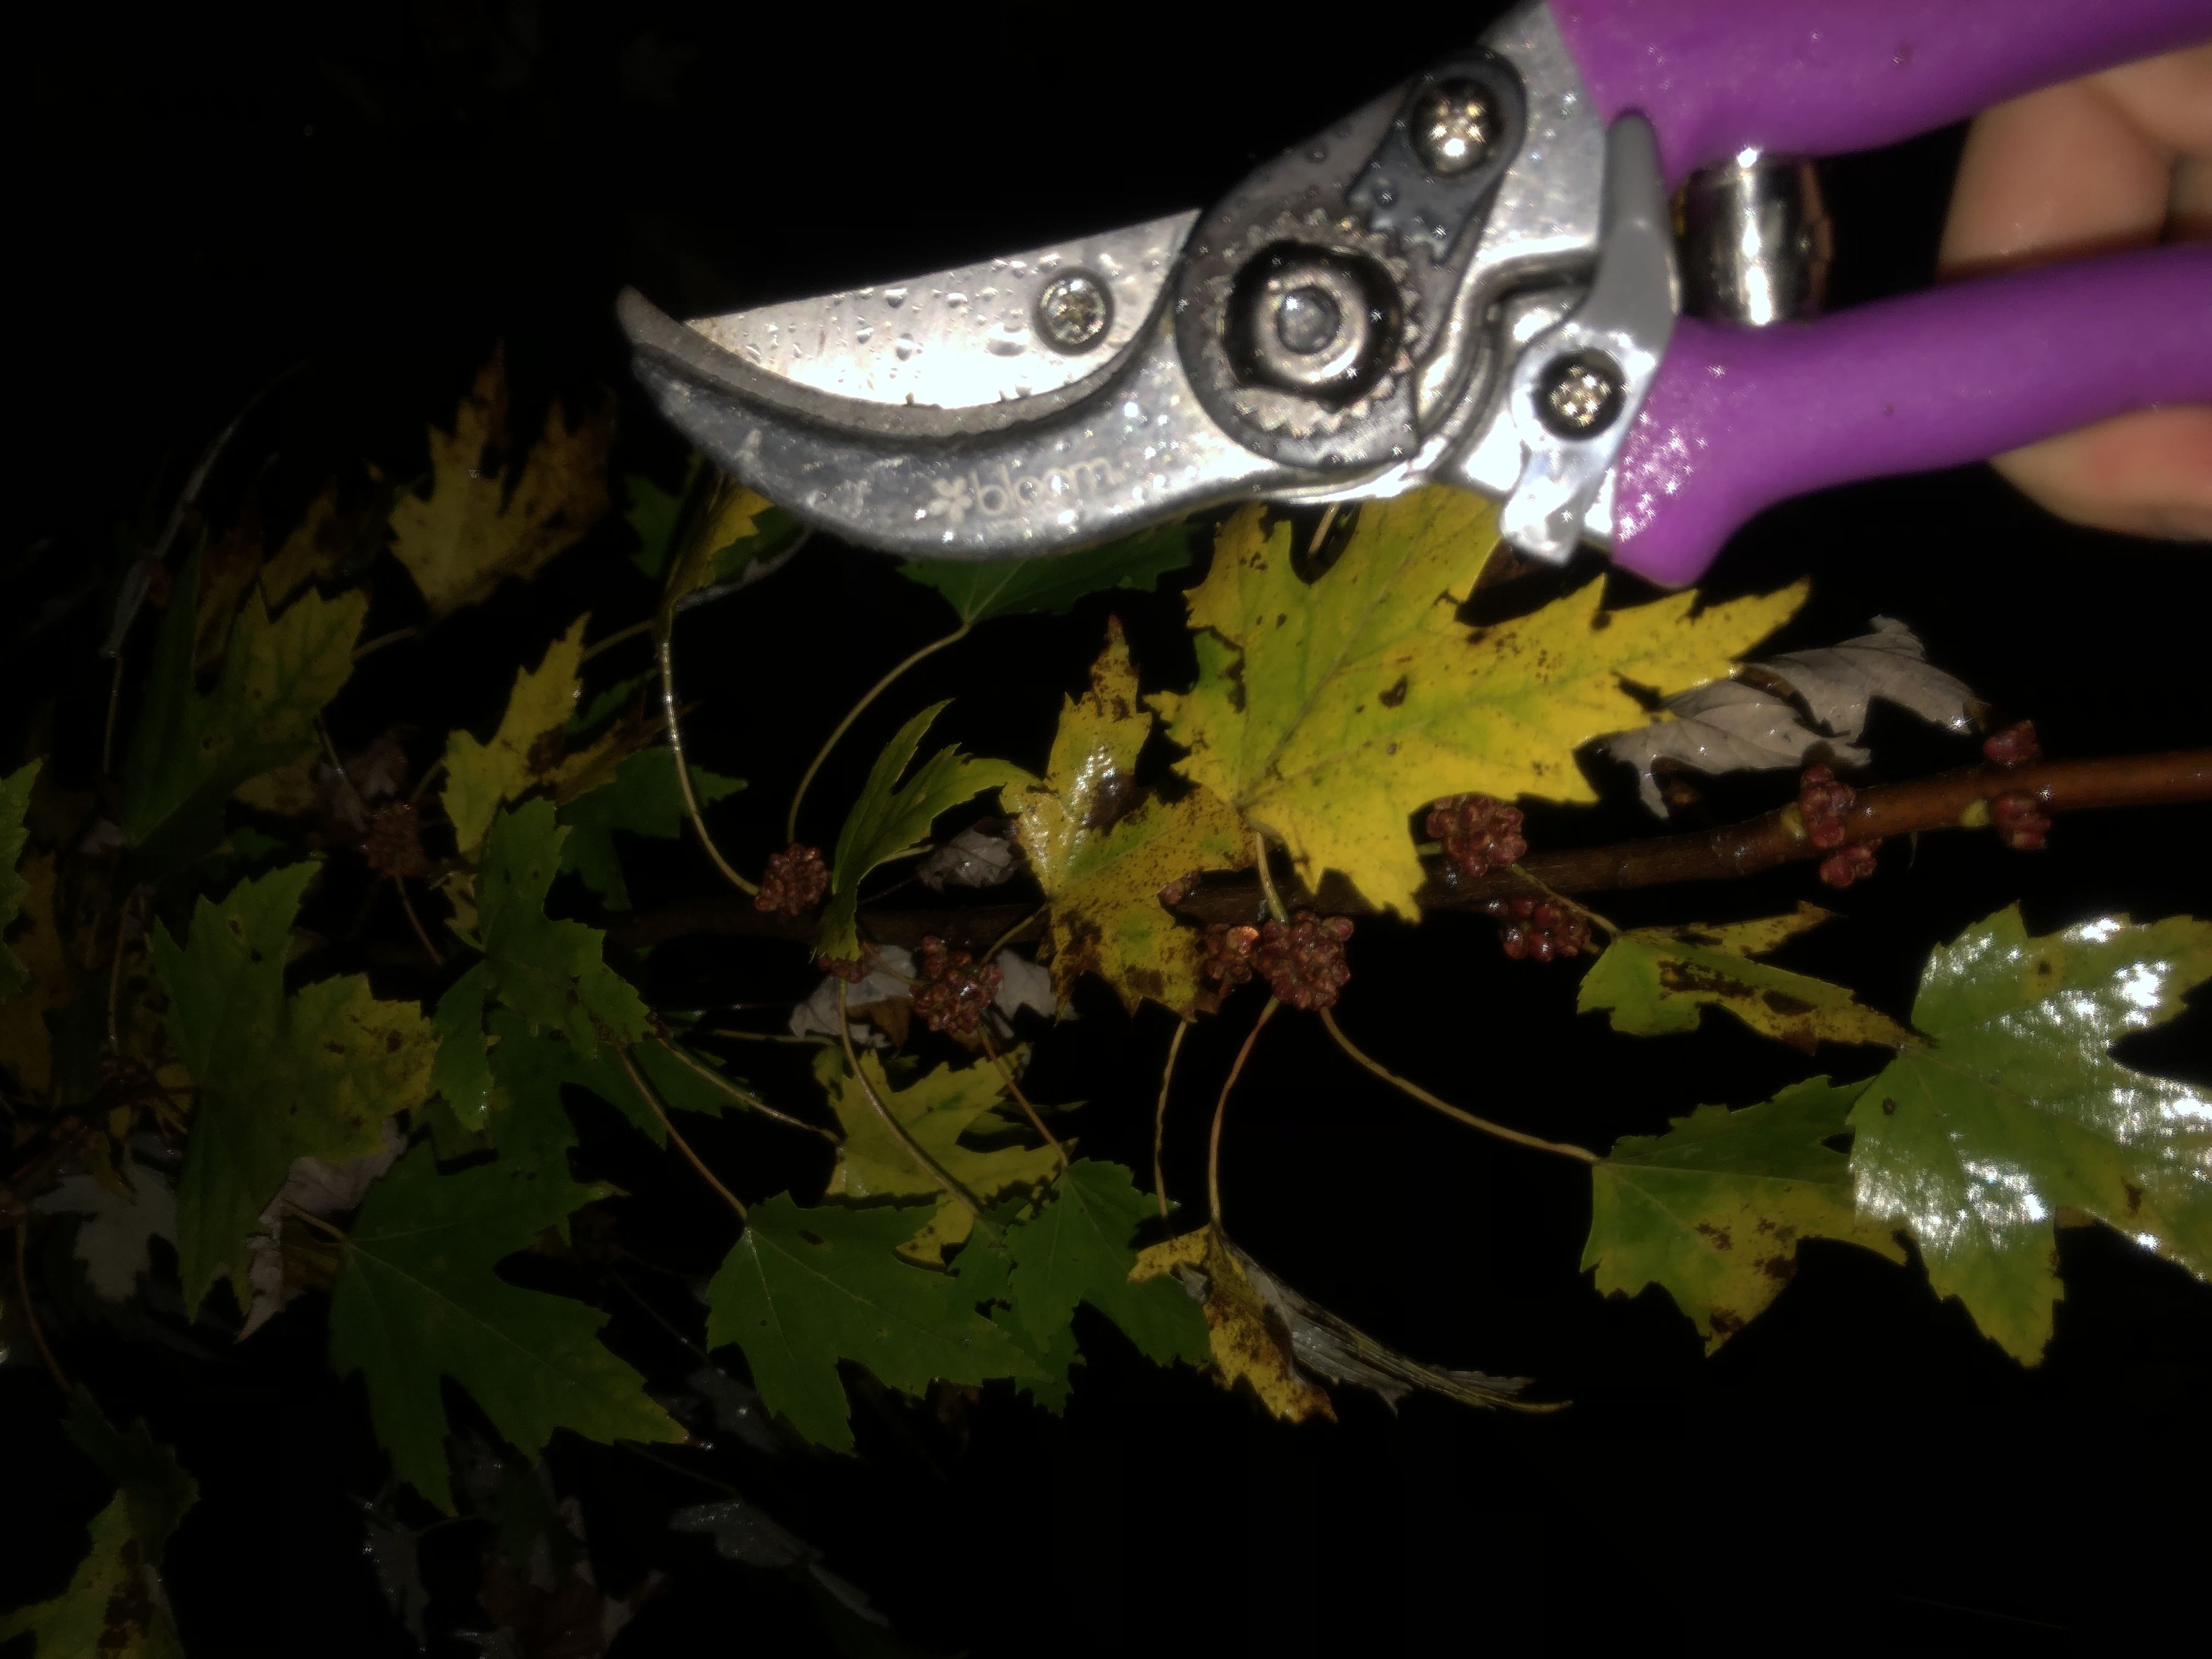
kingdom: Plantae
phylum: Tracheophyta
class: Magnoliopsida
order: Sapindales
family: Sapindaceae
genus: Acer
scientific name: Acer saccharinum
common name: Silver maple
